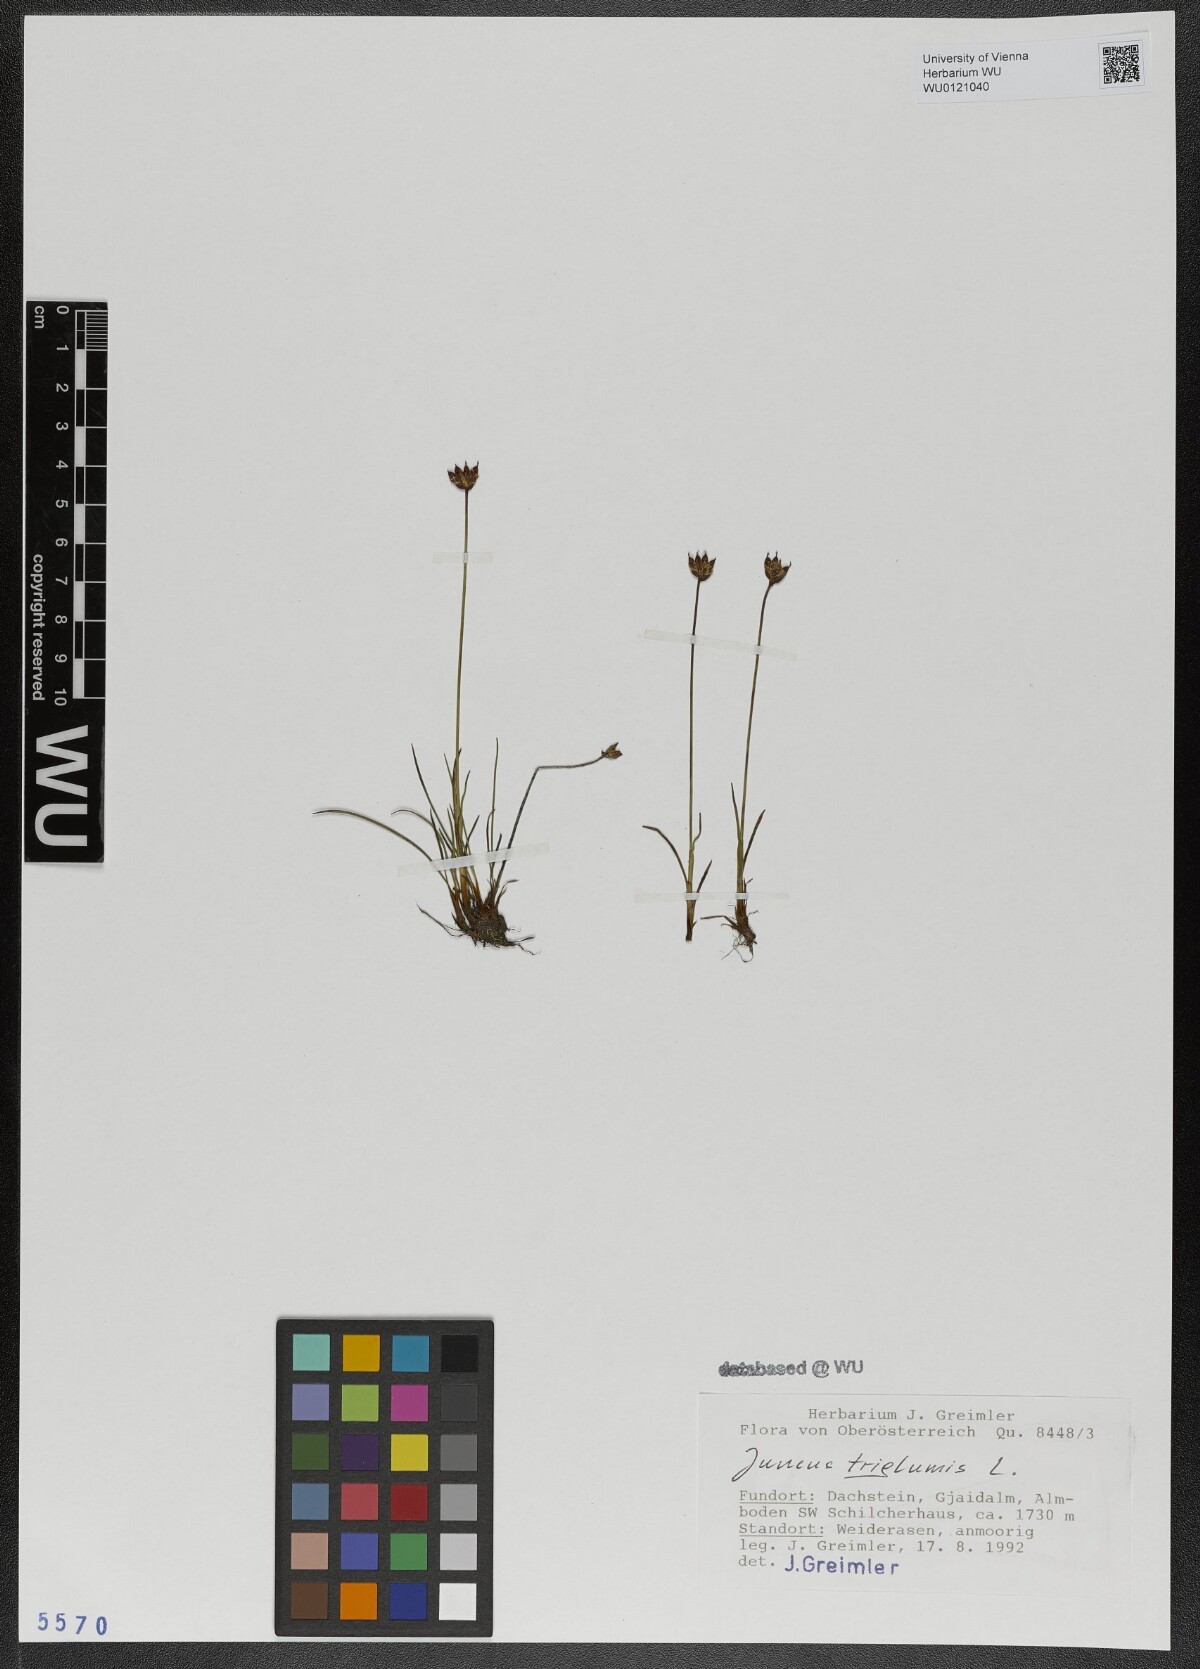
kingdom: Plantae
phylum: Tracheophyta
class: Liliopsida
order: Poales
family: Juncaceae
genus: Juncus
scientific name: Juncus triglumis
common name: Three-flowered rush
